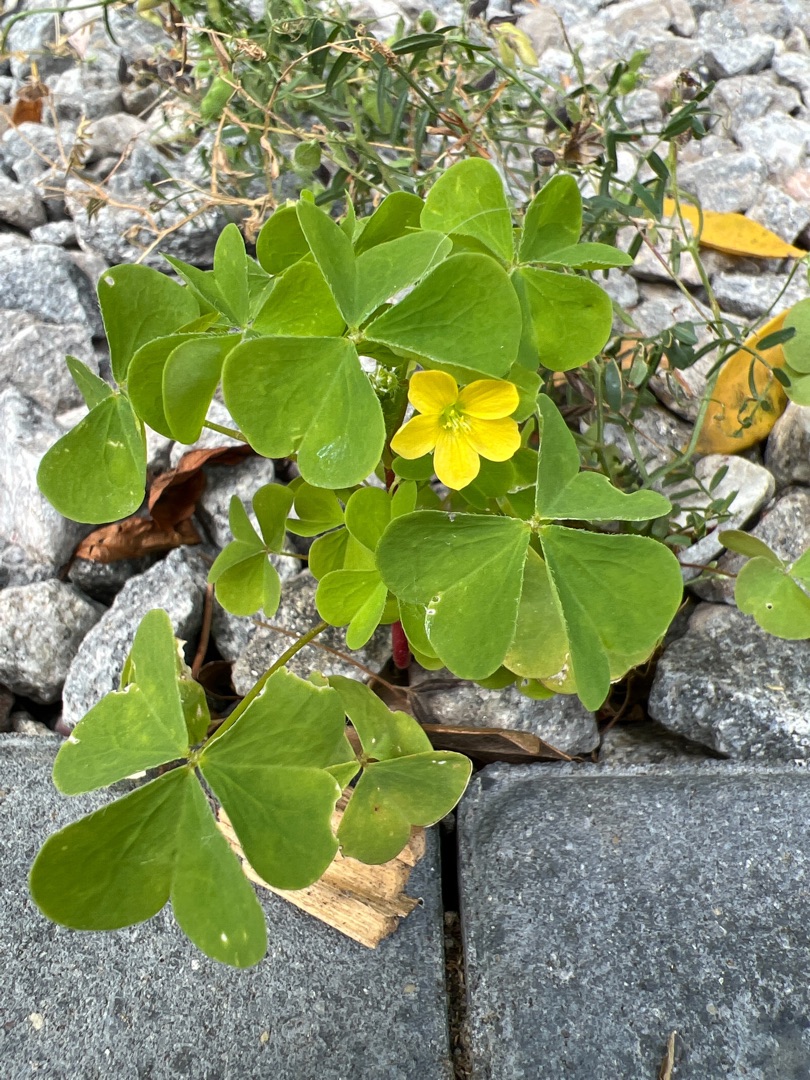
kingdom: Plantae
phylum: Tracheophyta
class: Magnoliopsida
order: Oxalidales
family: Oxalidaceae
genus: Oxalis
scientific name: Oxalis stricta
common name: Rank surkløver
